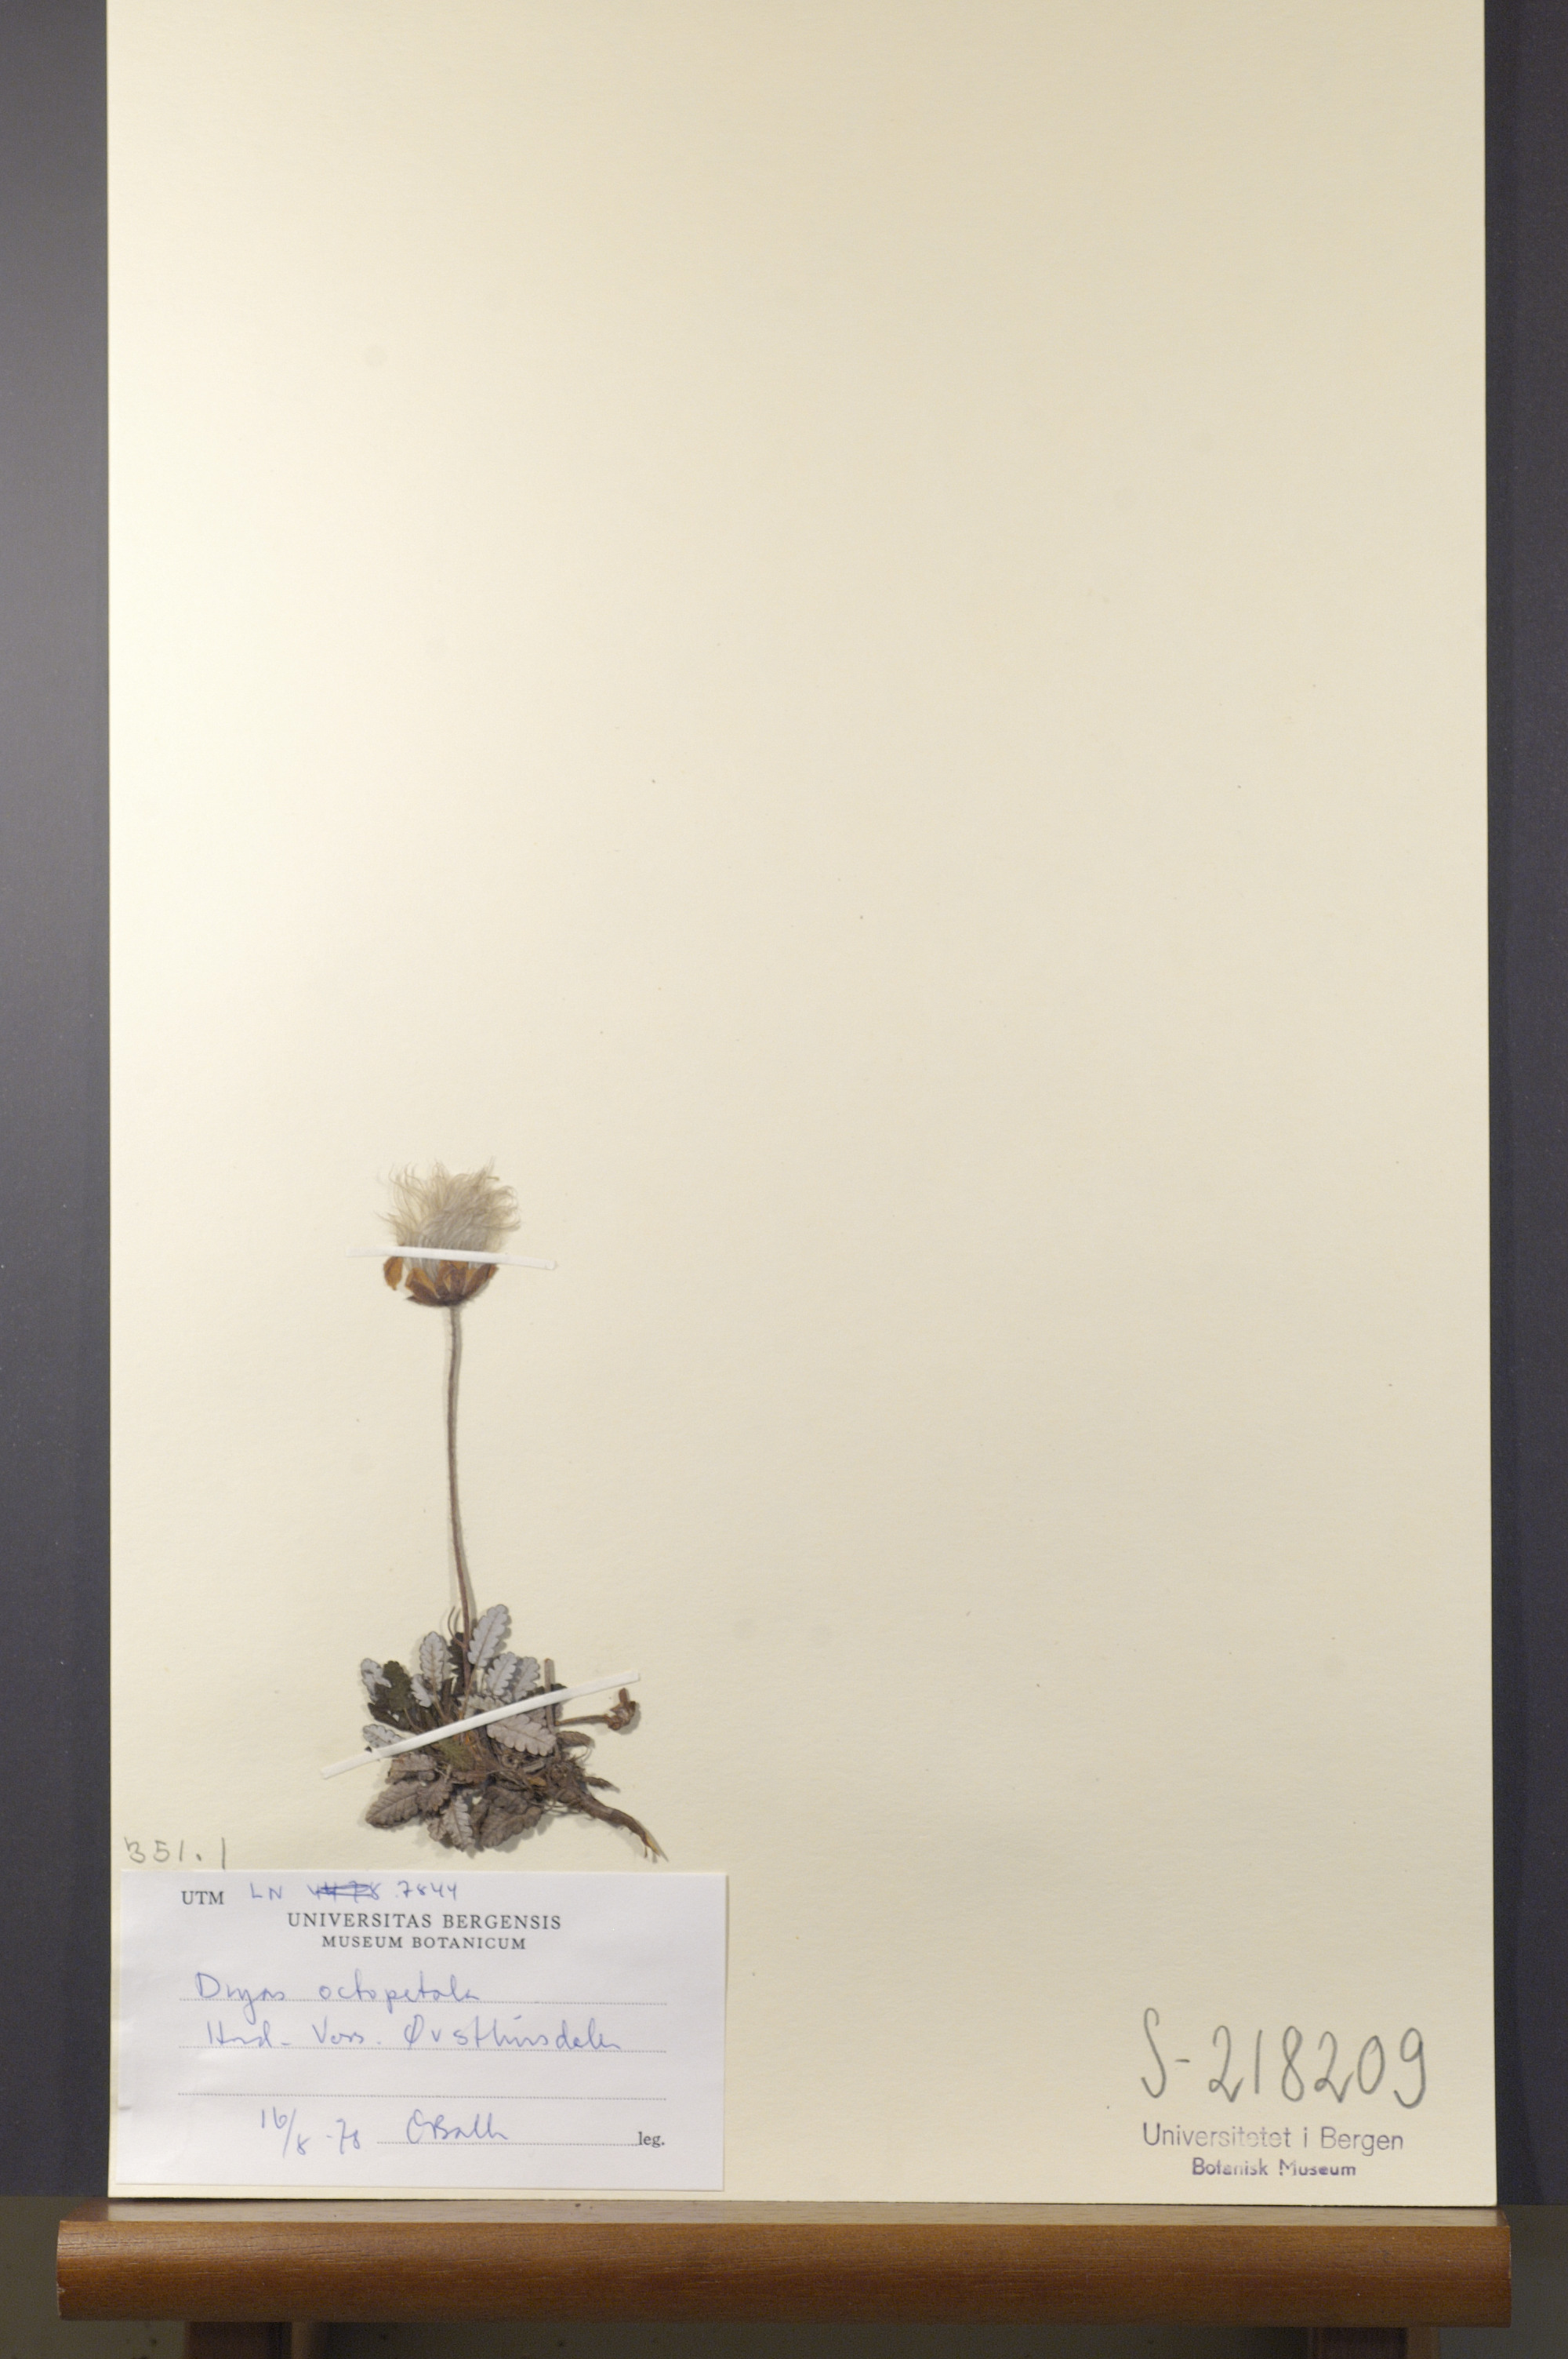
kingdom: Plantae
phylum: Tracheophyta
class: Magnoliopsida
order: Rosales
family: Rosaceae
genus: Dryas
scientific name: Dryas octopetala
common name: Eight-petal mountain-avens
